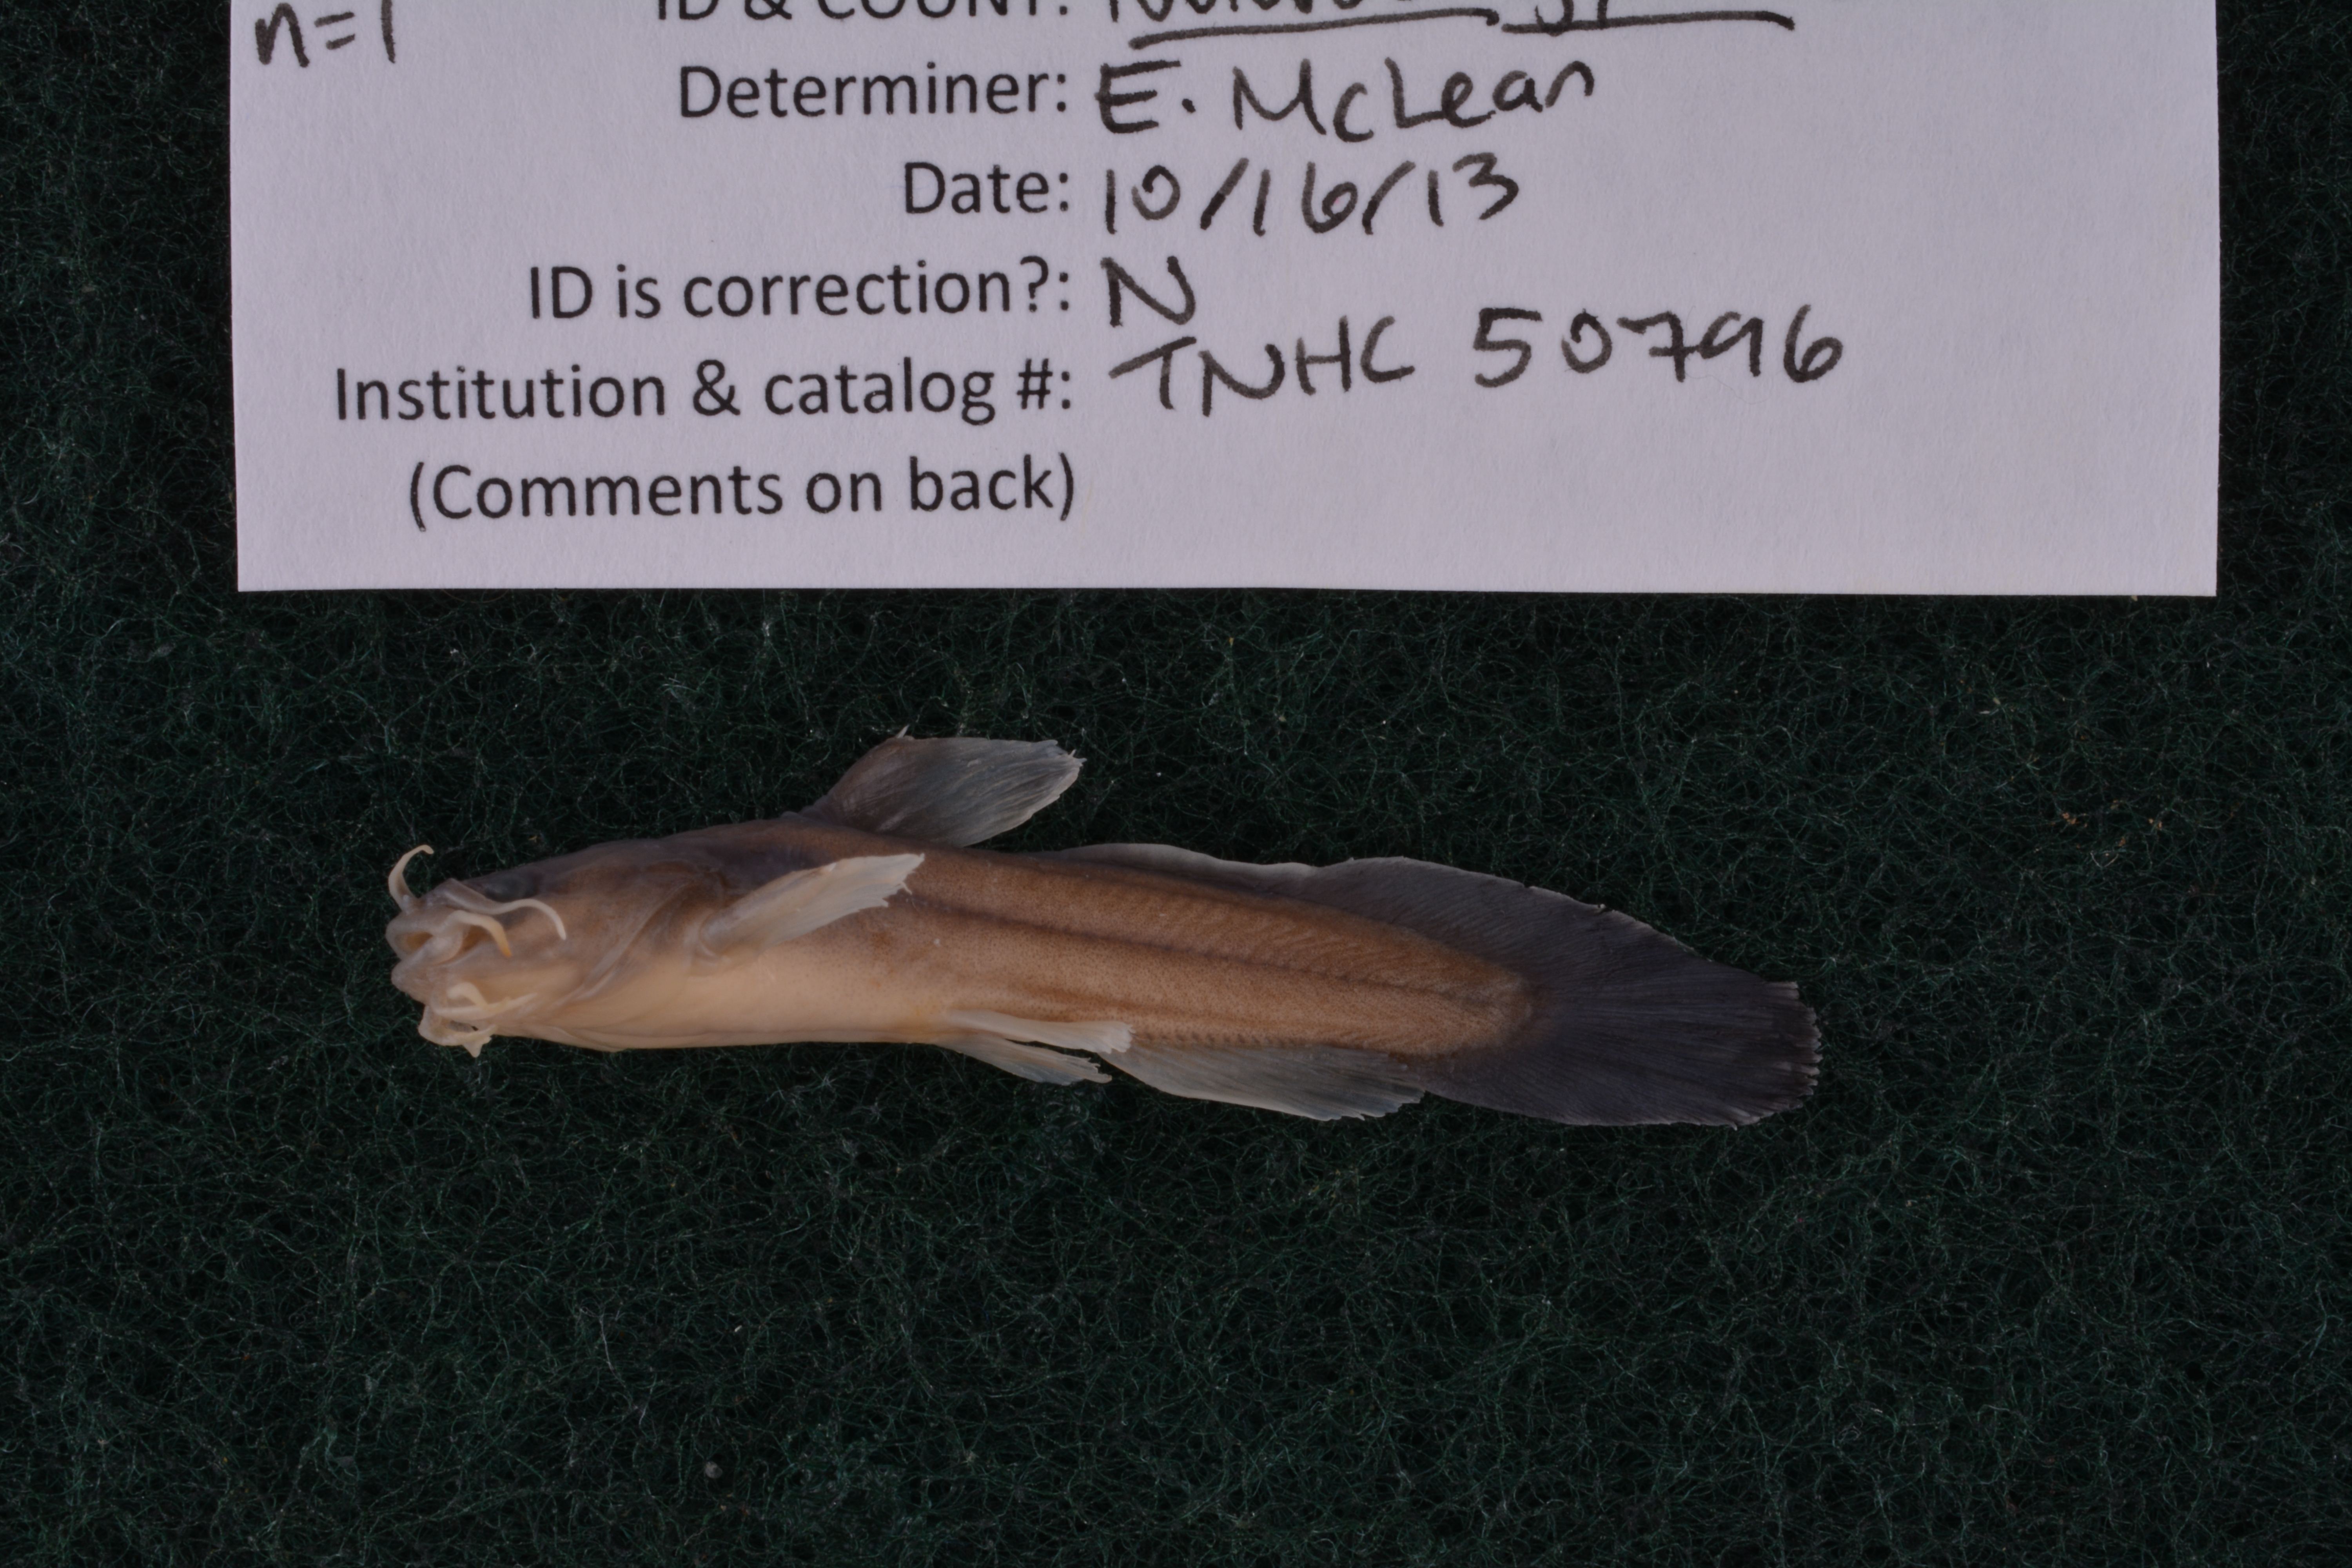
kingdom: Animalia
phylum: Chordata
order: Siluriformes
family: Ictaluridae
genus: Noturus
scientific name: Noturus gyrinus
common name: Tadpole madtom
